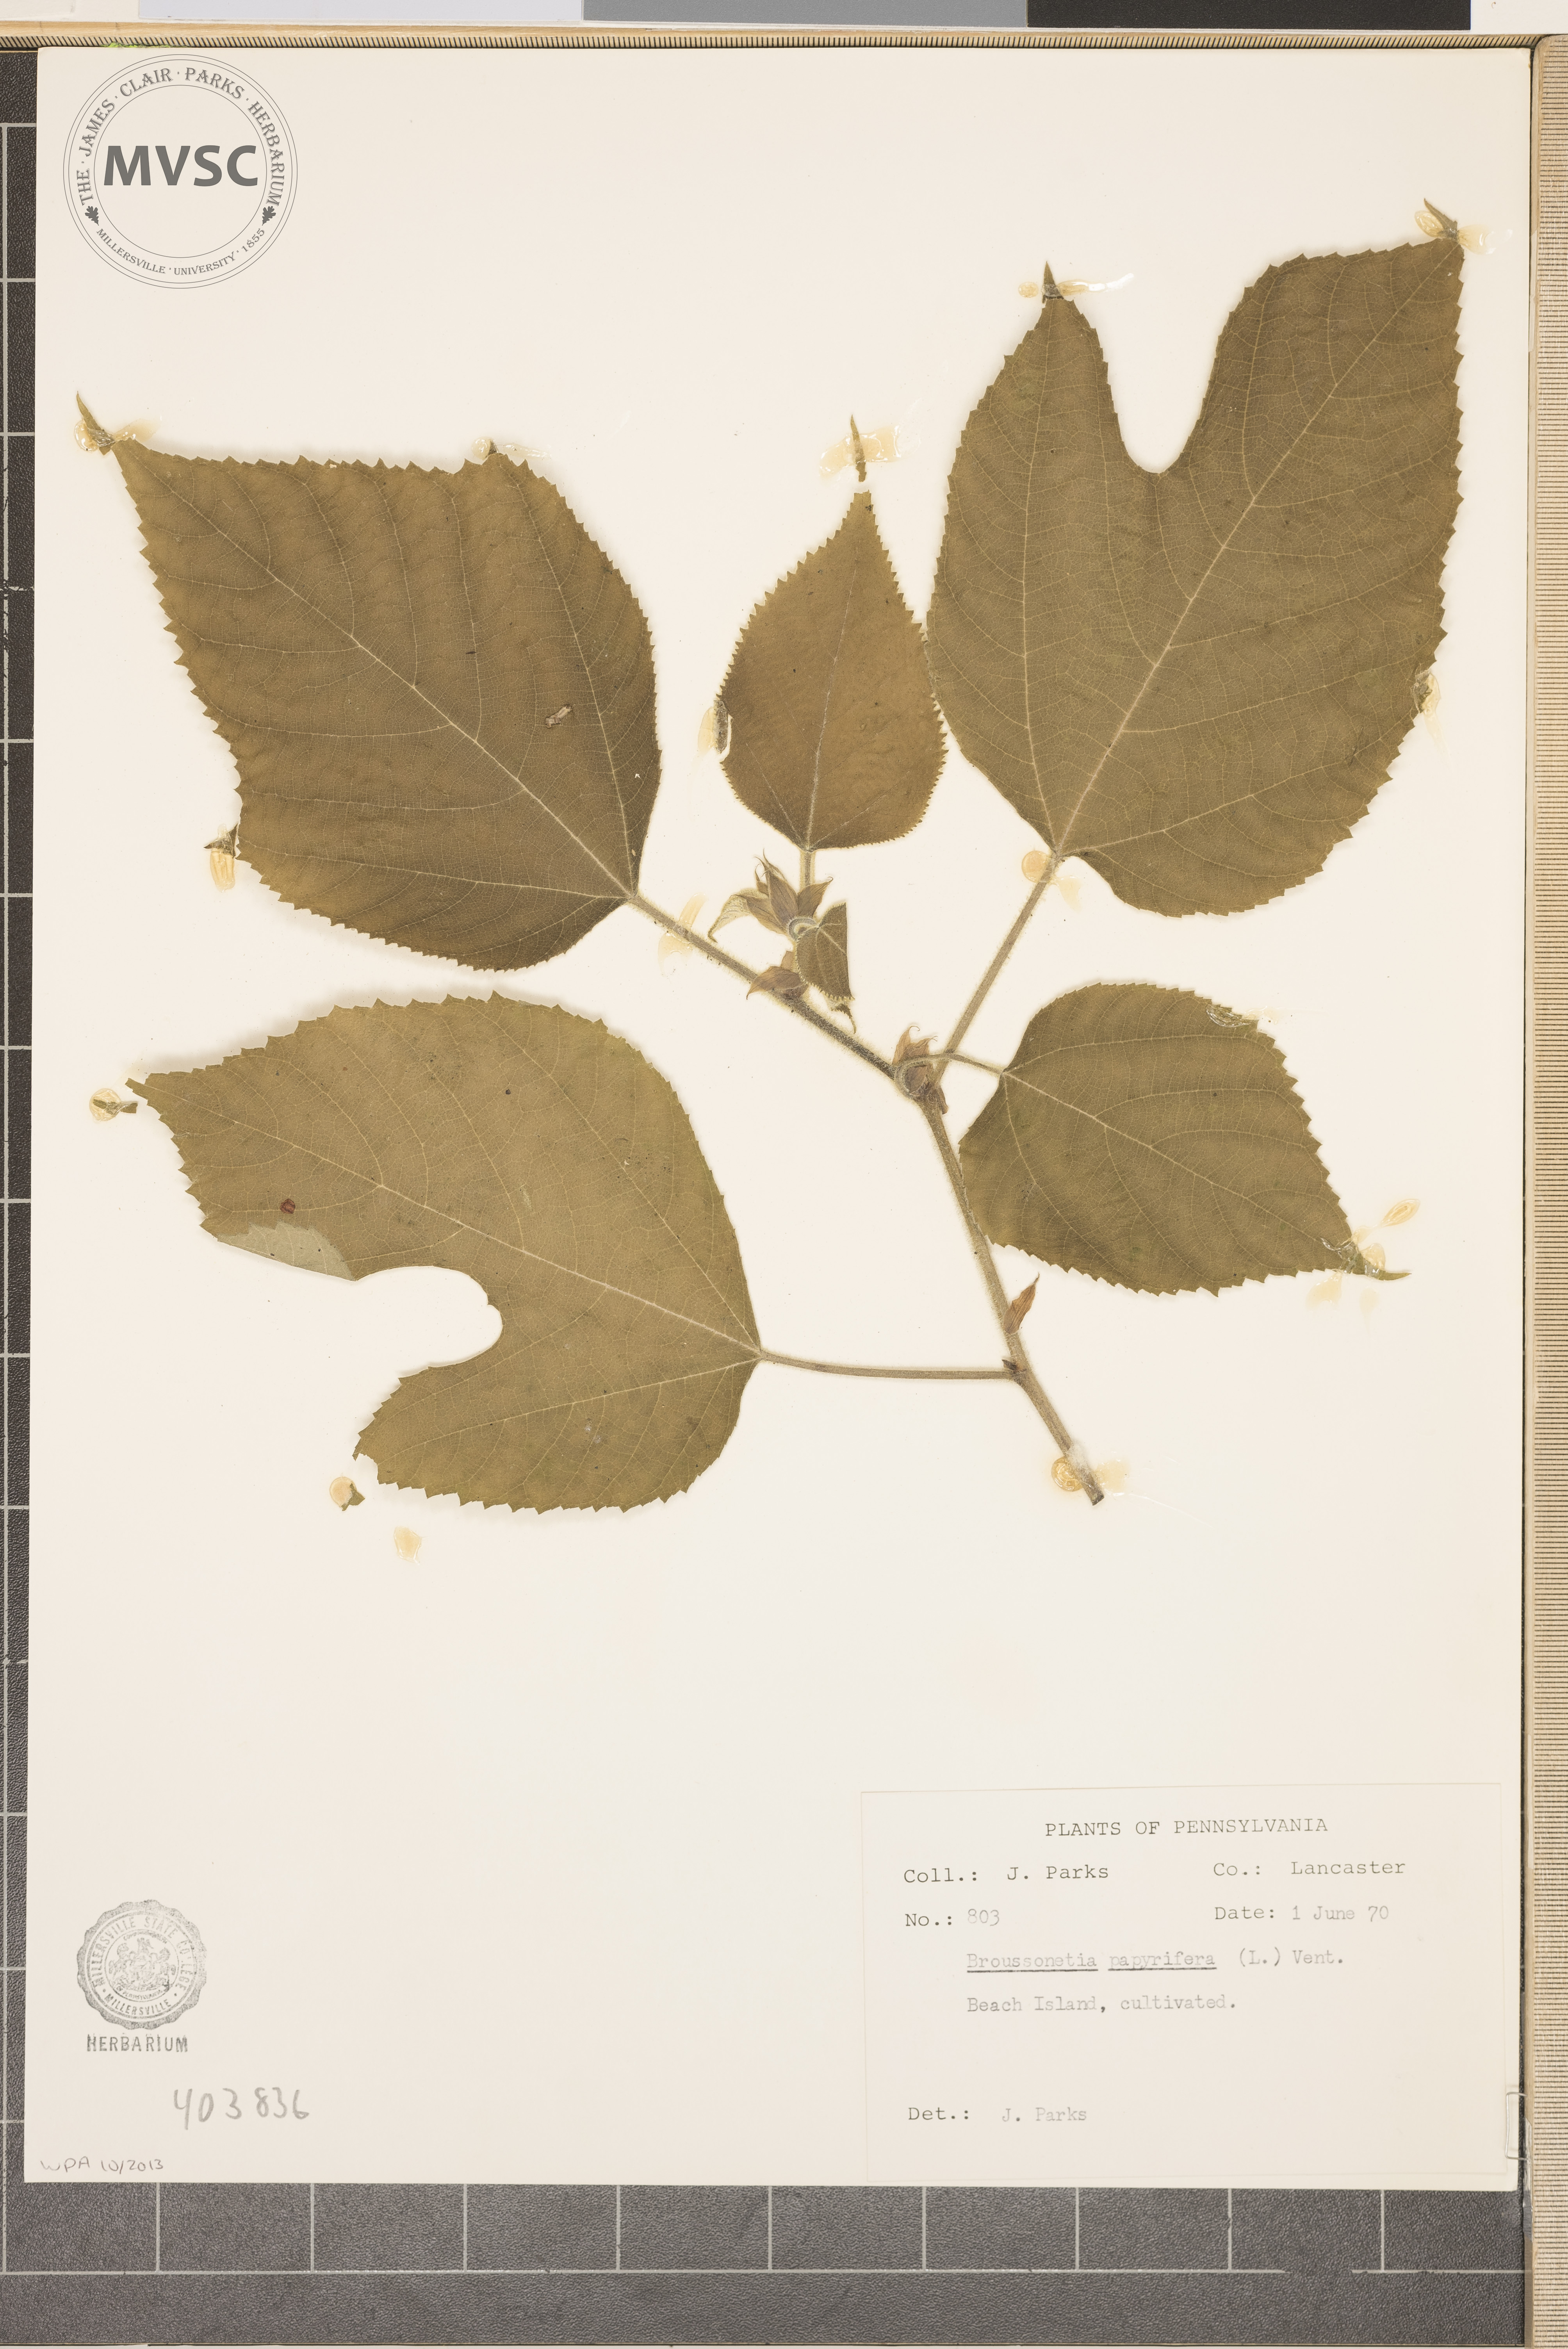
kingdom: Plantae
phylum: Tracheophyta
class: Magnoliopsida
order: Rosales
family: Moraceae
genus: Broussonetia
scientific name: Broussonetia papyrifera
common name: Paper mulberry
